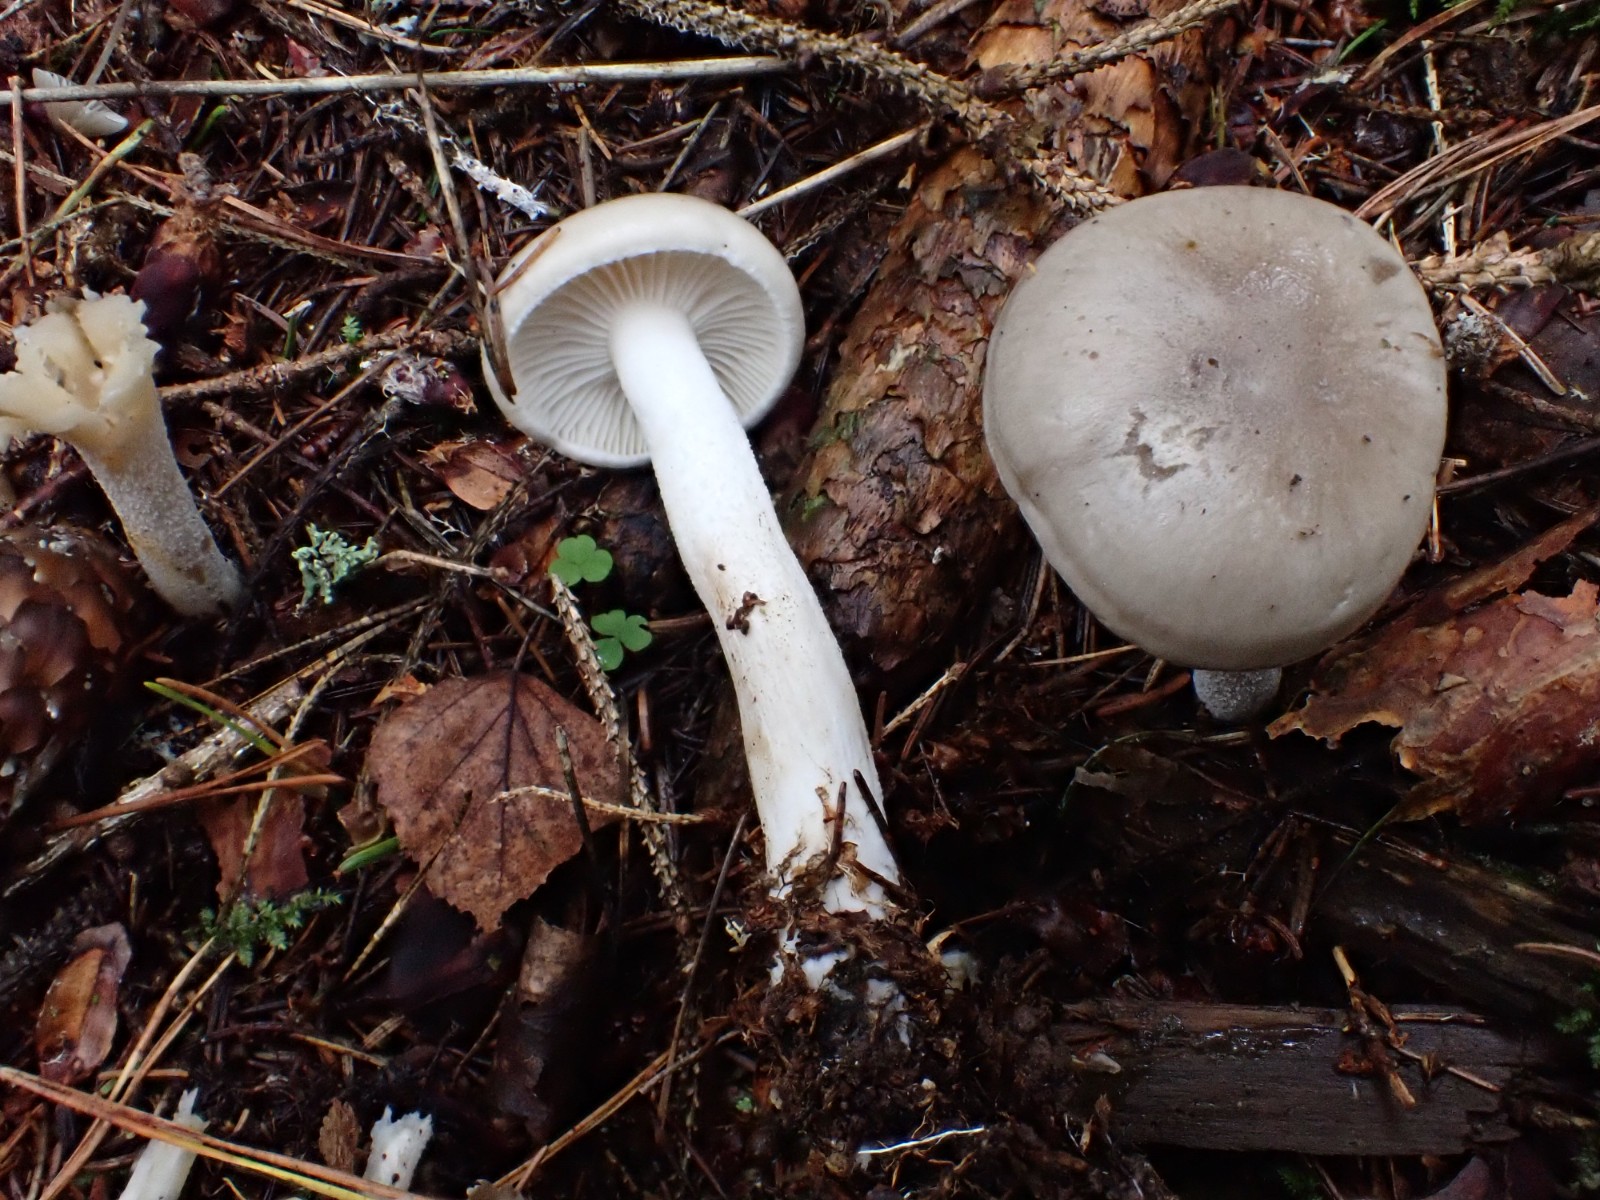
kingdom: Fungi
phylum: Basidiomycota
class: Agaricomycetes
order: Agaricales
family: Hygrophoraceae
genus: Hygrophorus
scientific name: Hygrophorus agathosmus
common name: vellugtende sneglehat
